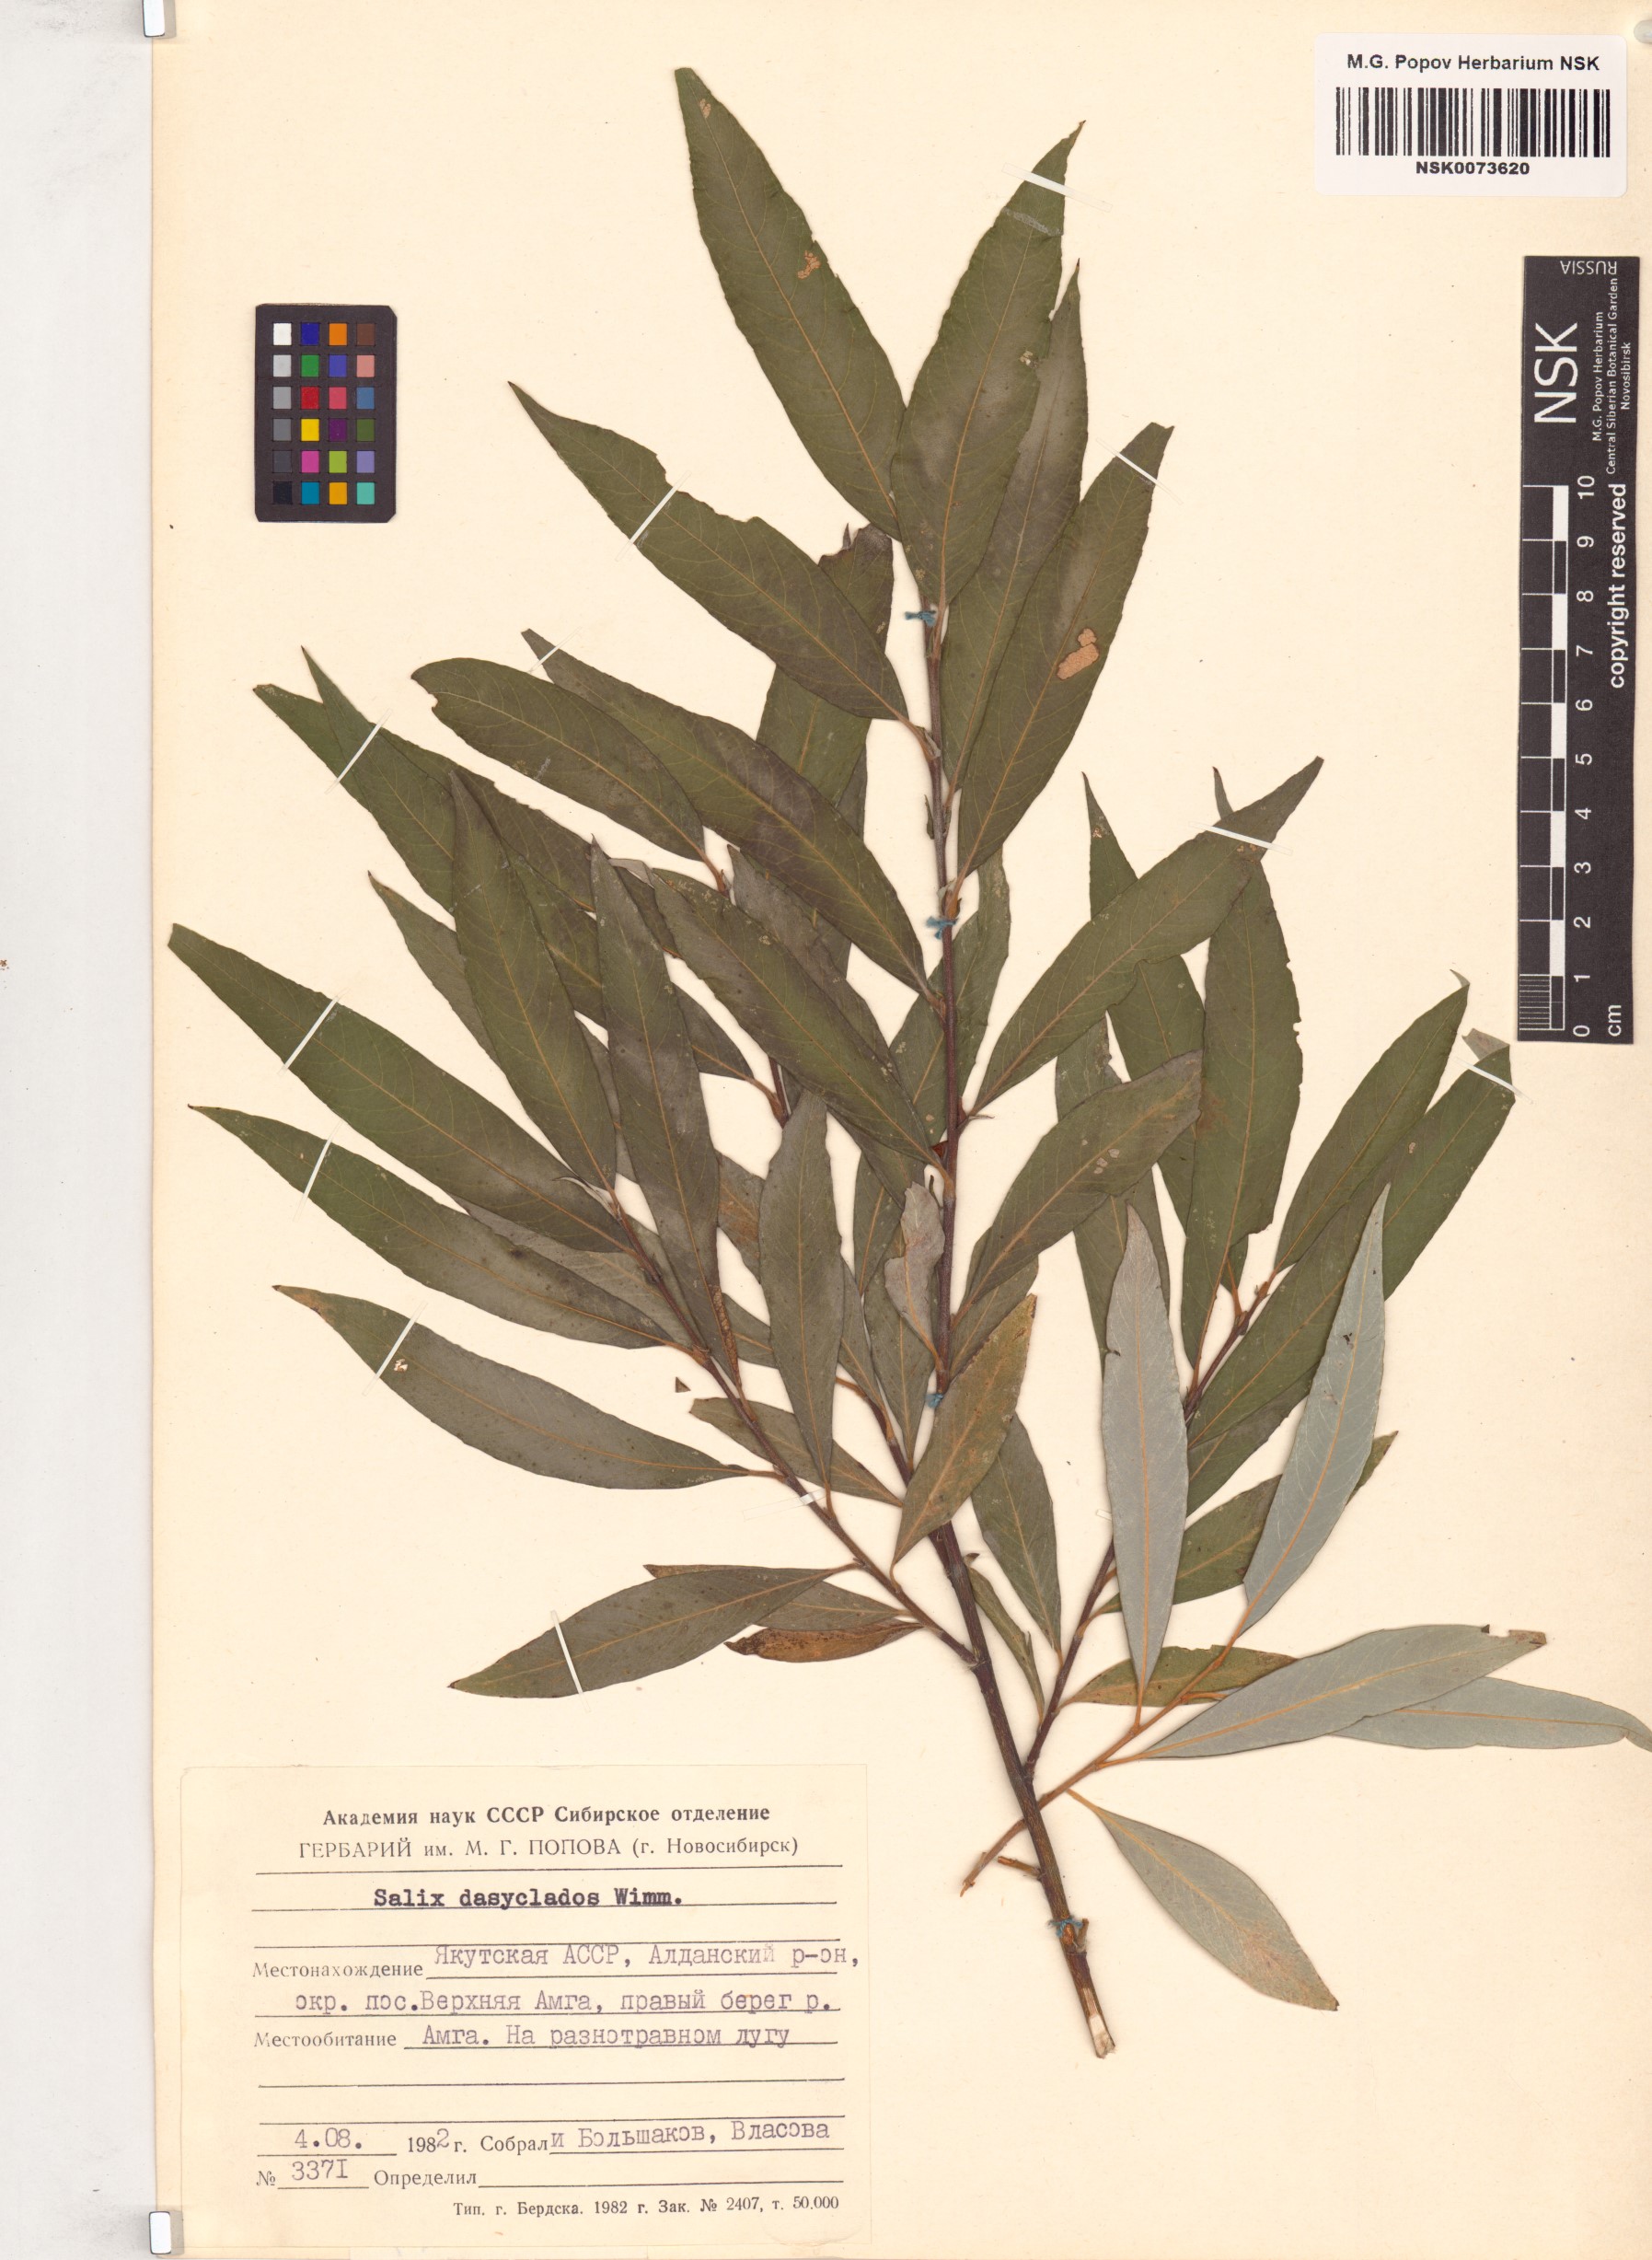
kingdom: Plantae
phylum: Tracheophyta
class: Magnoliopsida
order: Malpighiales
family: Salicaceae
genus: Salix
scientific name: Salix gmelinii
